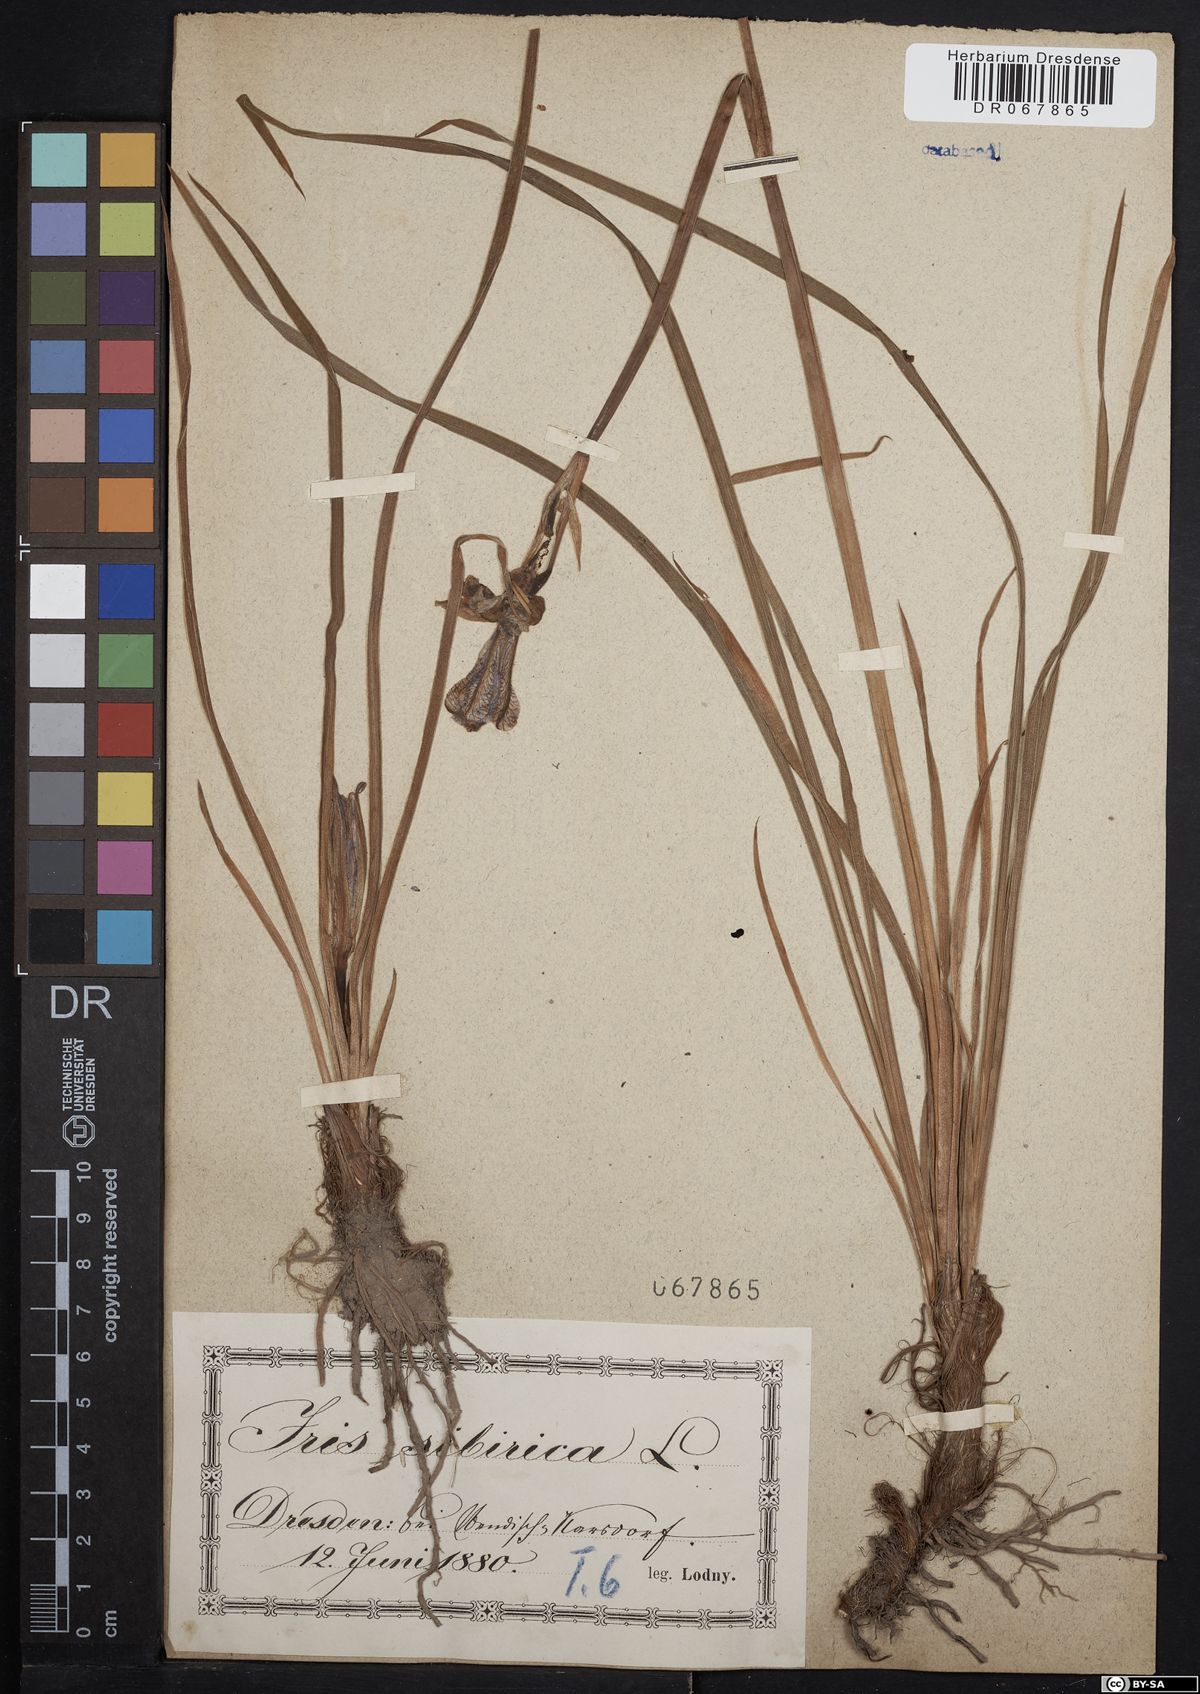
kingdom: Plantae
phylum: Tracheophyta
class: Liliopsida
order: Asparagales
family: Iridaceae
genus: Iris
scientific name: Iris sibirica
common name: Siberian iris
